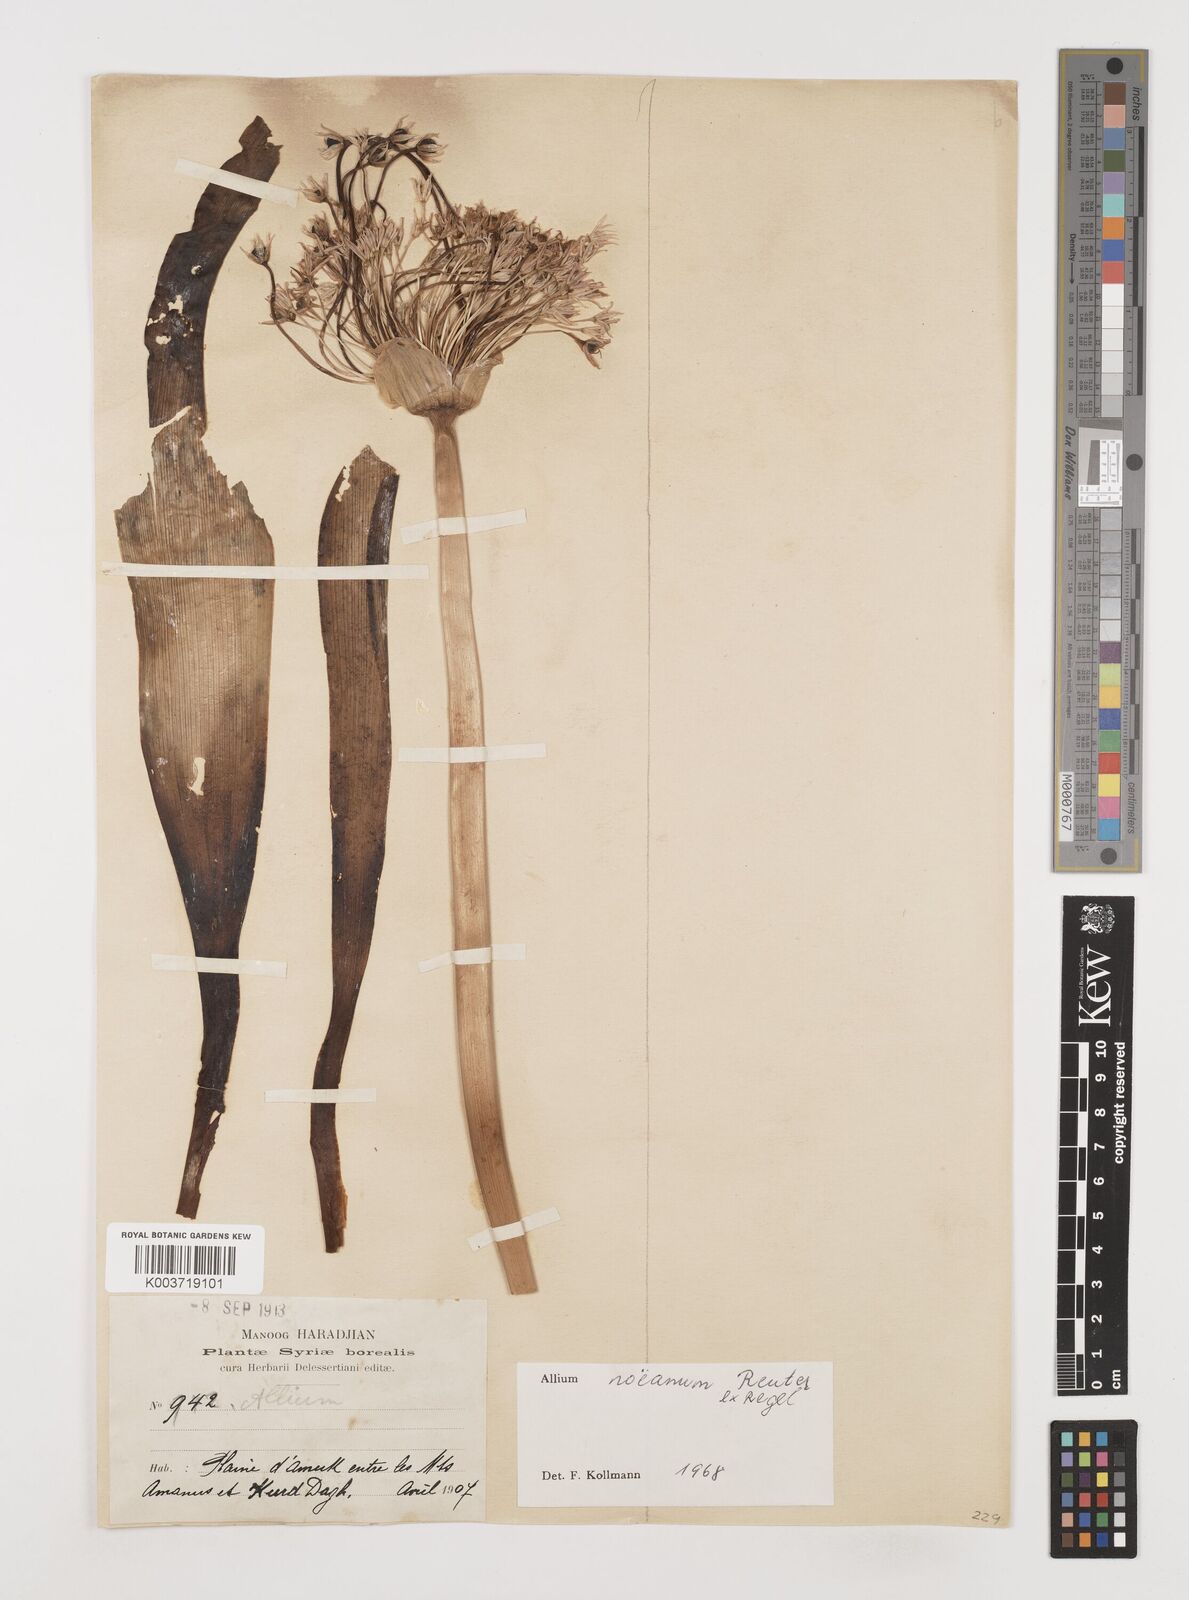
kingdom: Plantae
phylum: Tracheophyta
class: Liliopsida
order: Asparagales
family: Amaryllidaceae
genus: Allium
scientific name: Allium noeanum
